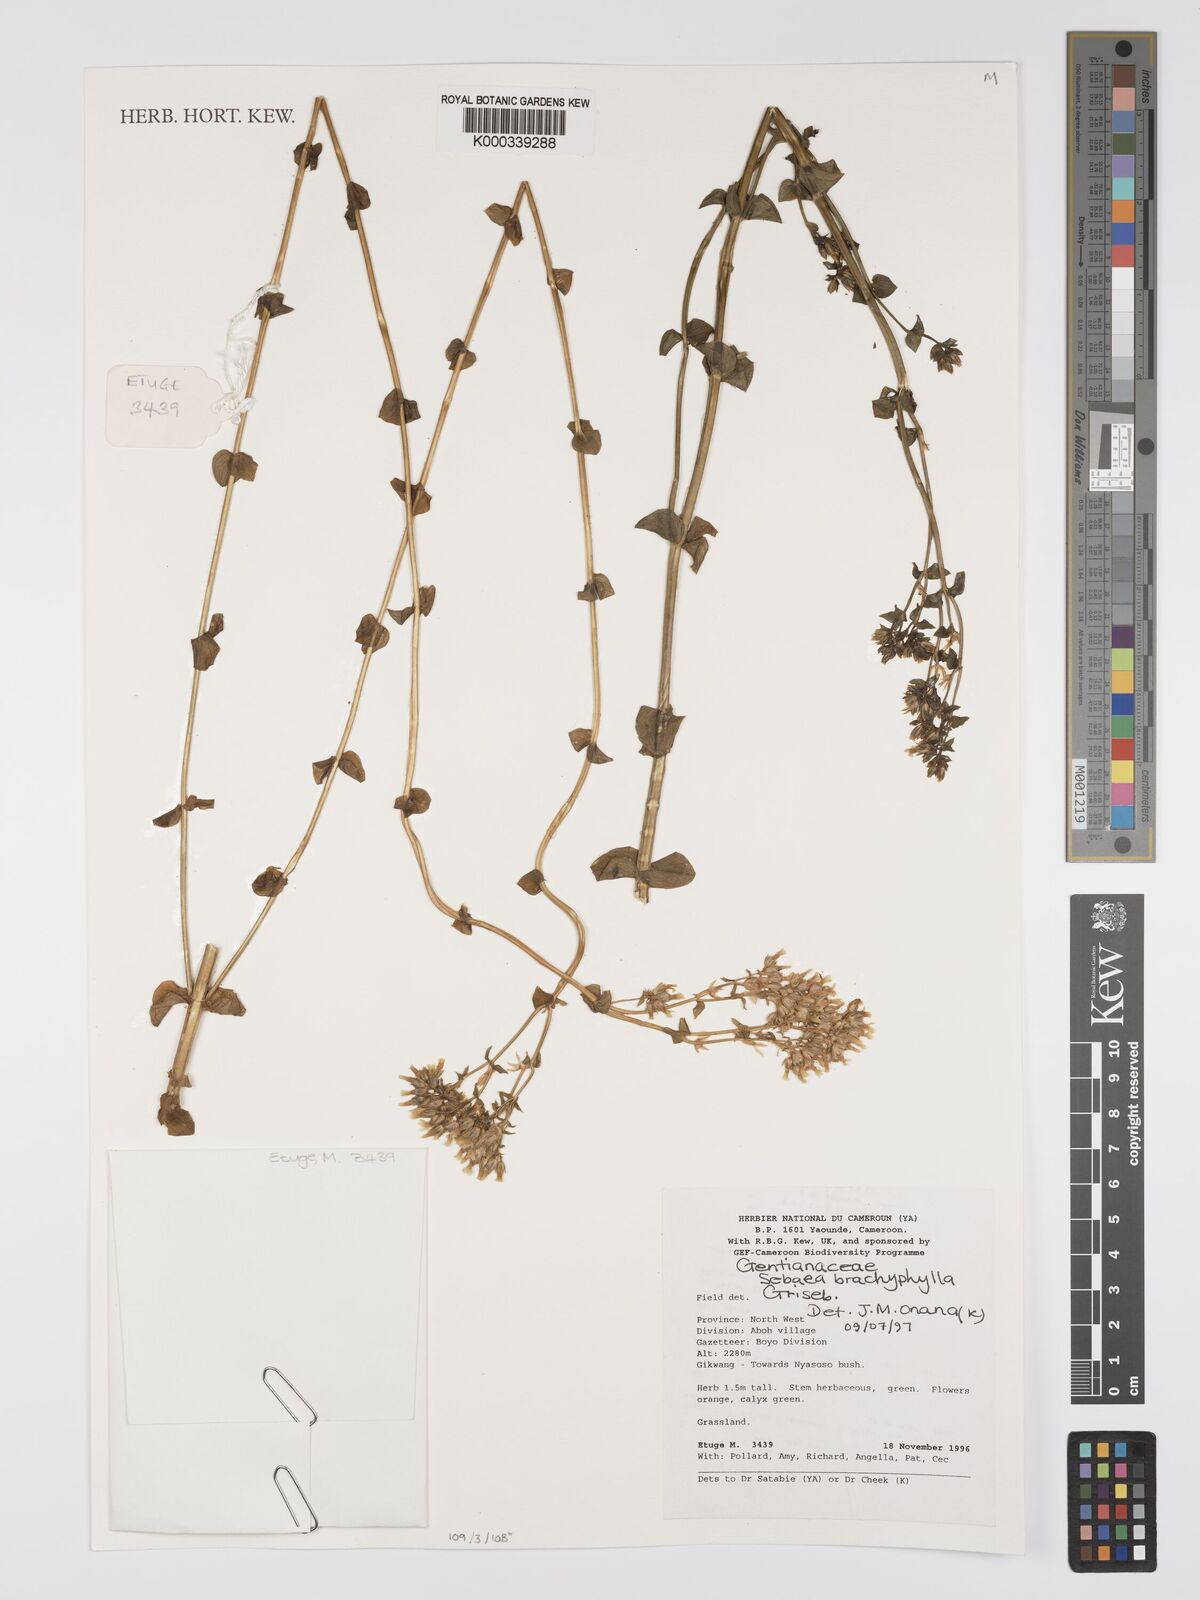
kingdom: Plantae
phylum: Tracheophyta
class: Magnoliopsida
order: Gentianales
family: Gentianaceae
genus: Sebaea
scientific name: Sebaea brachyphylla
